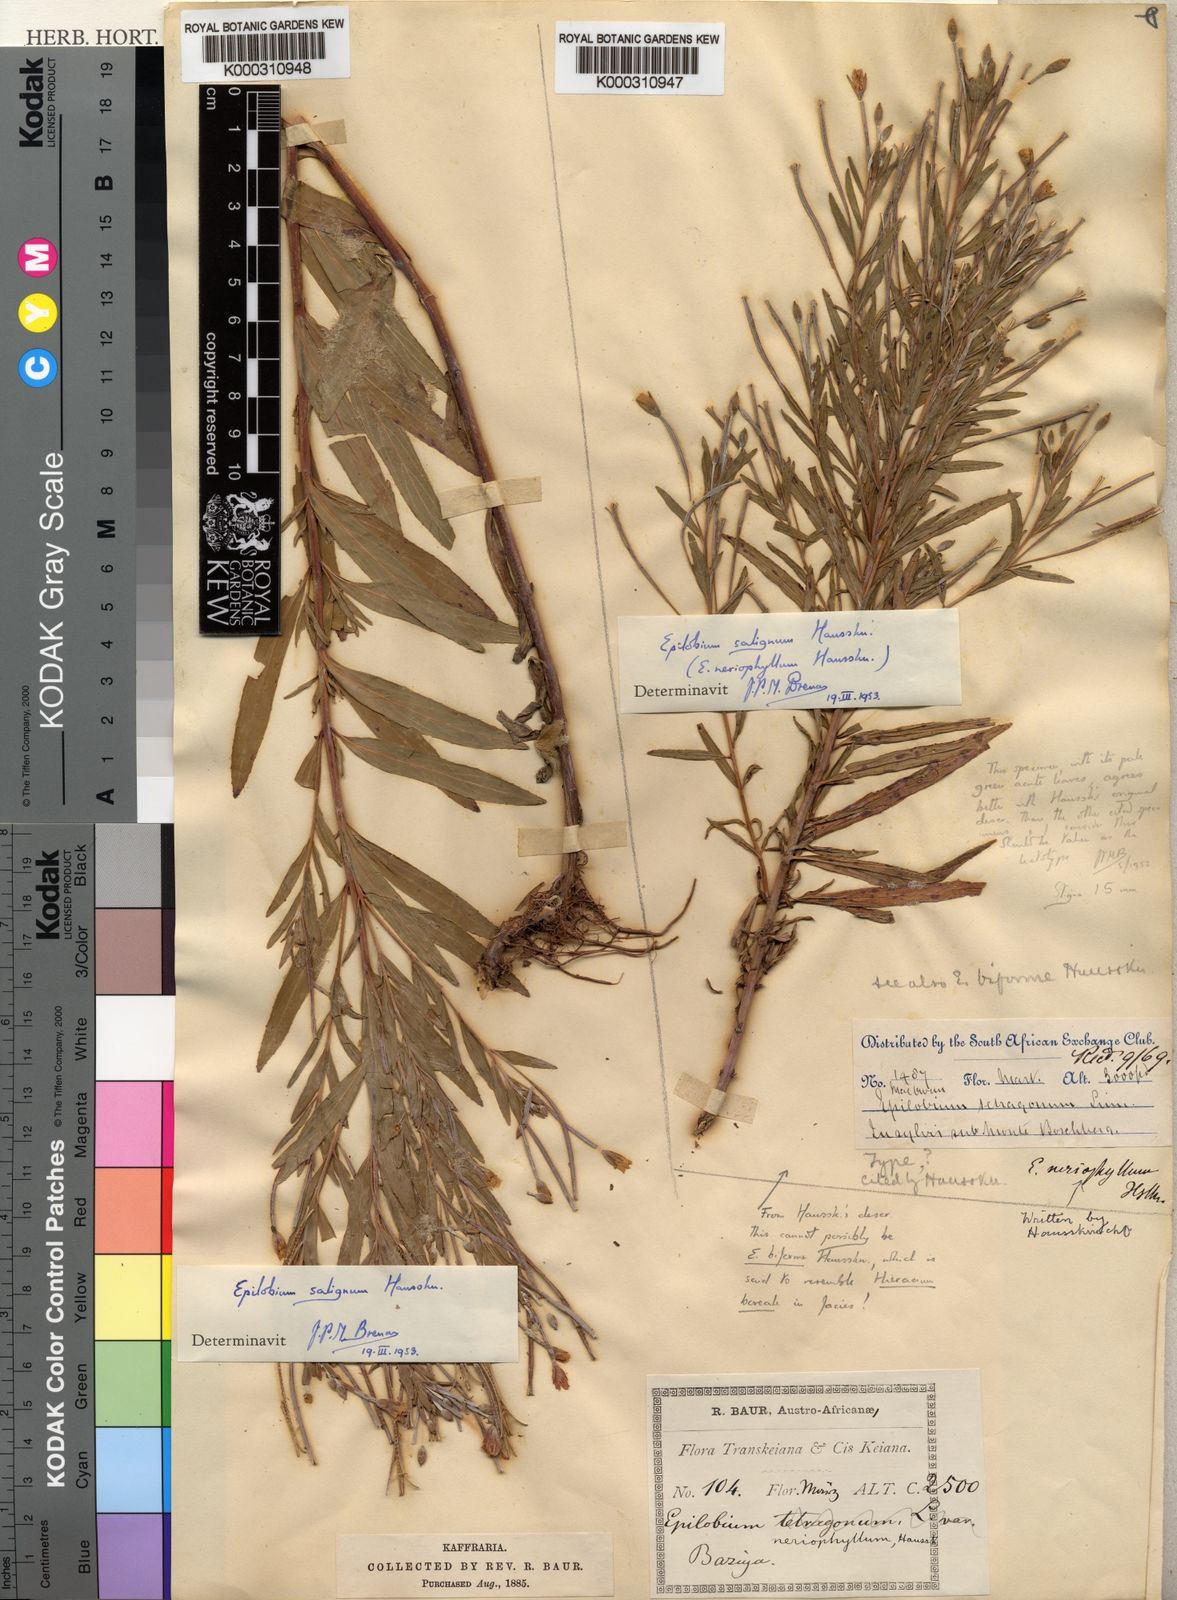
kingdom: Plantae
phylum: Tracheophyta
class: Magnoliopsida
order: Myrtales
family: Onagraceae
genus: Epilobium
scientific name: Epilobium salignum
